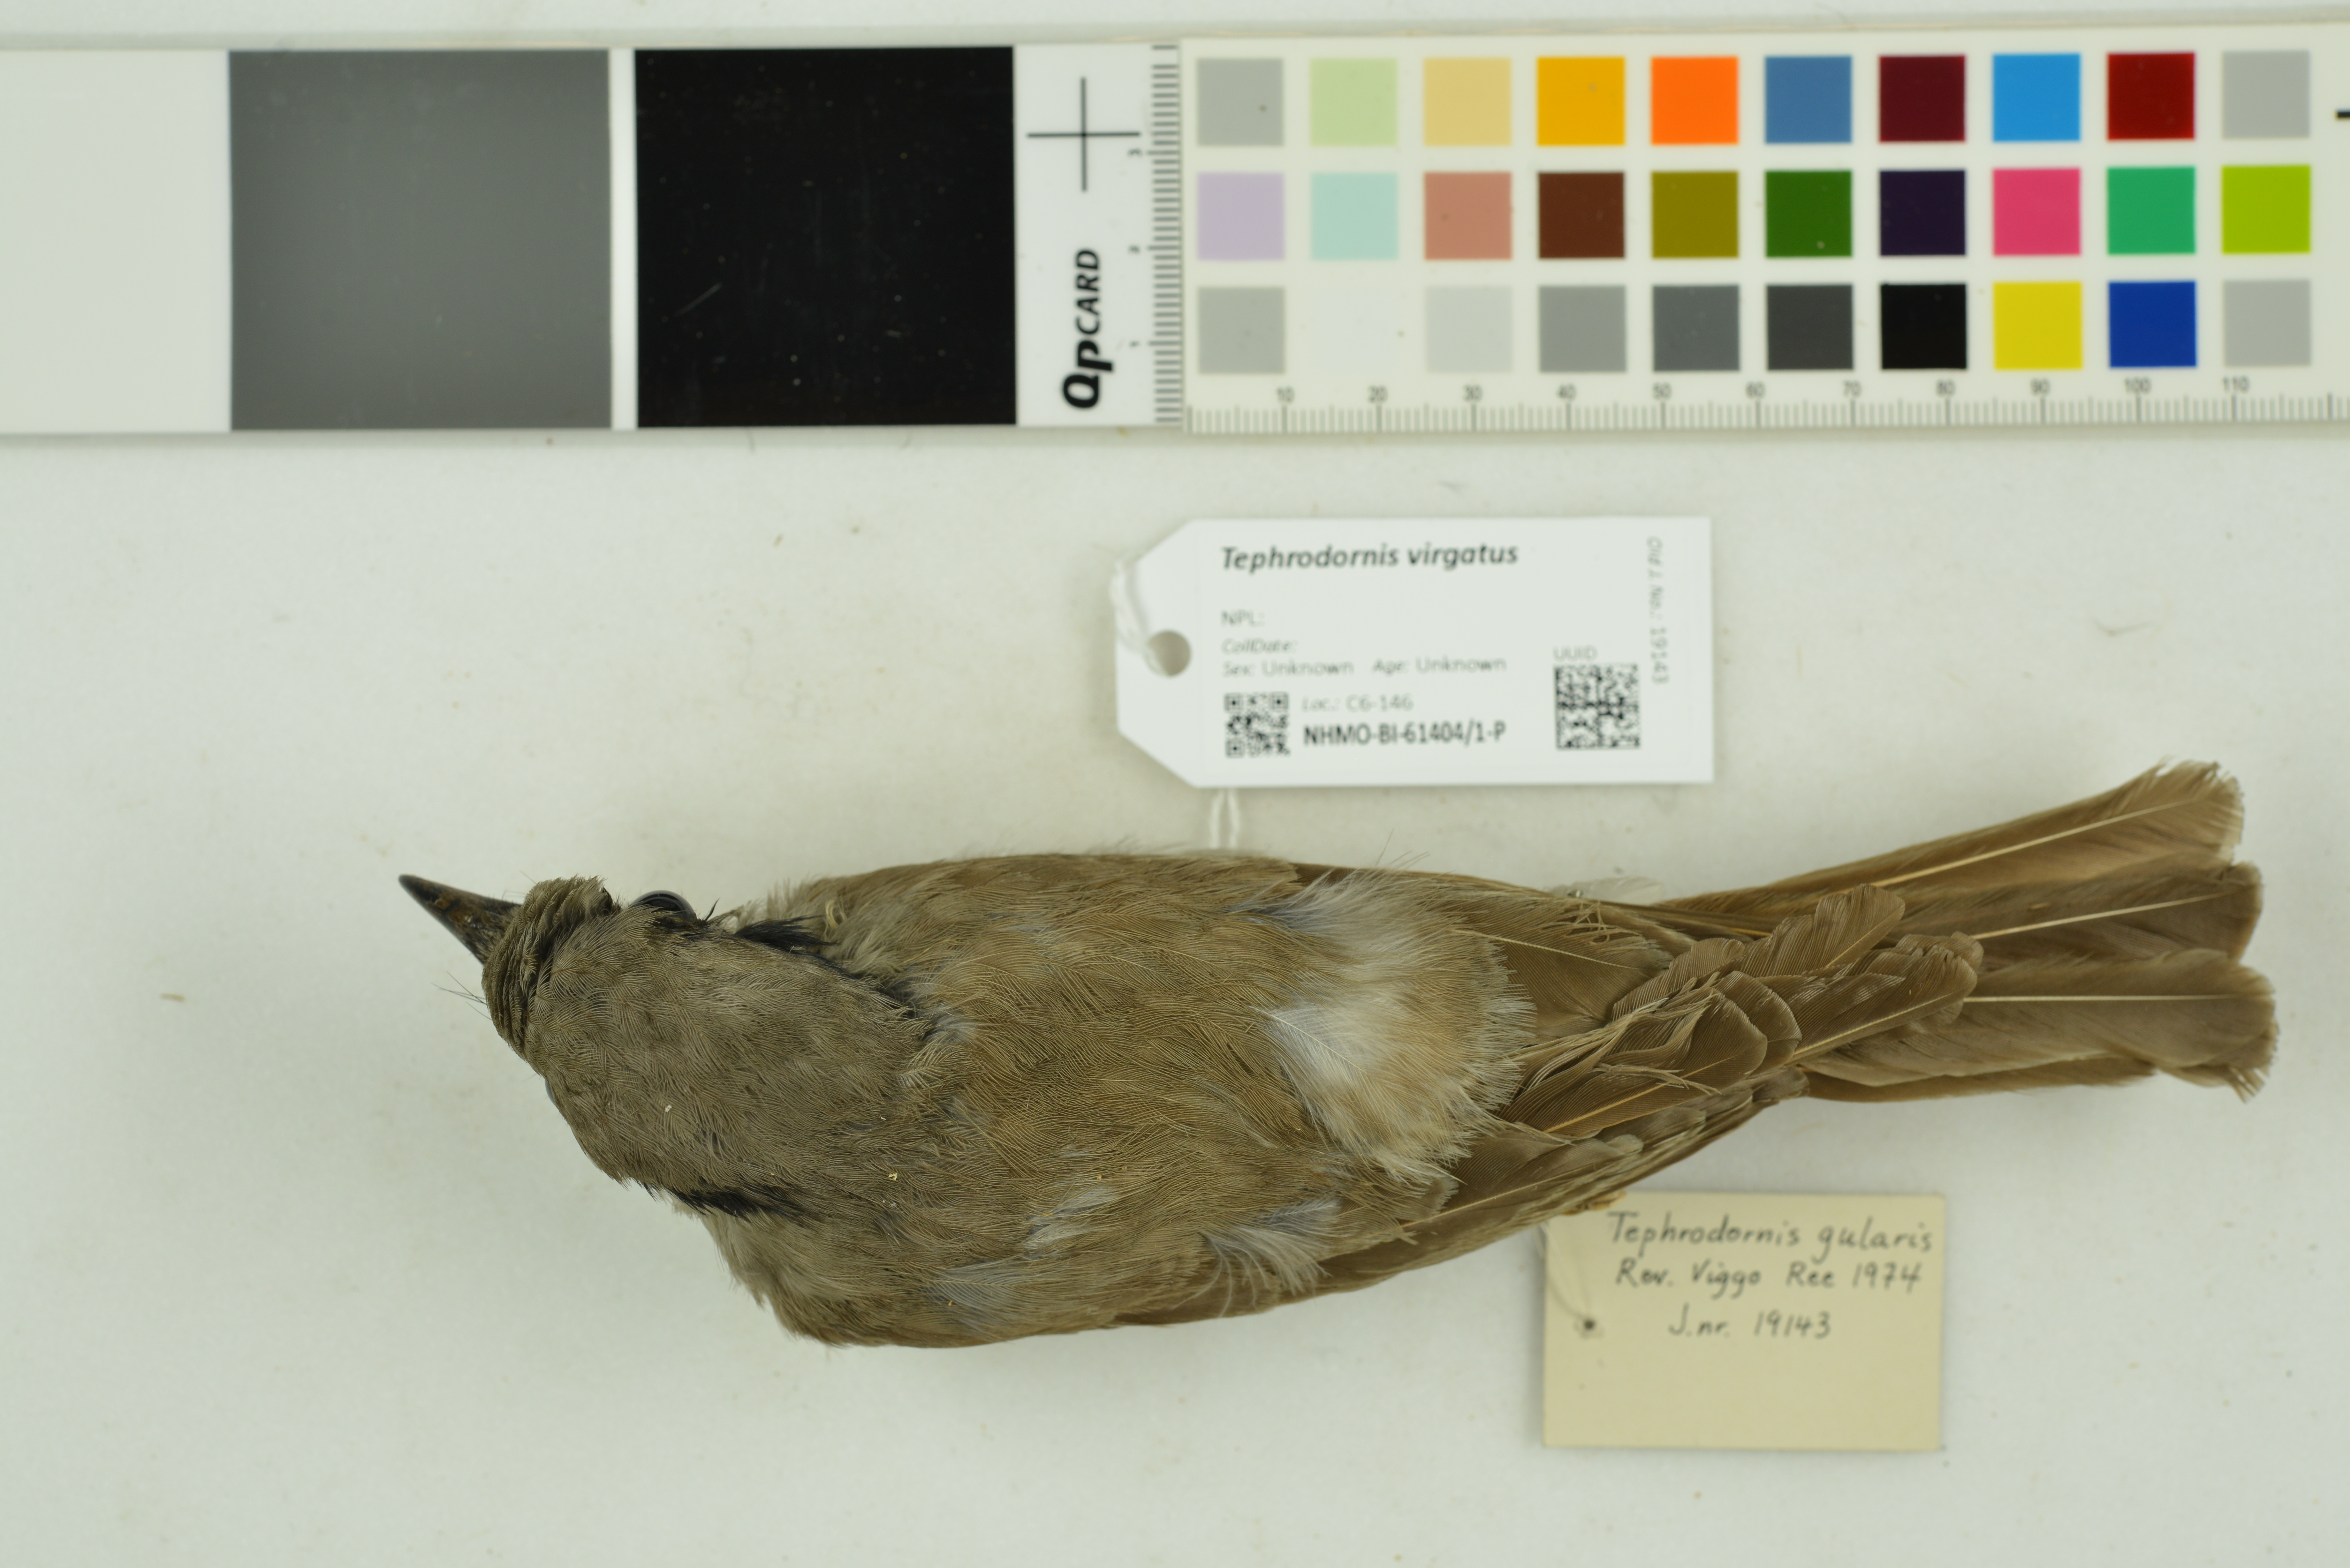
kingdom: Animalia
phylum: Chordata
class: Aves
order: Passeriformes
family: Tephrodornithidae
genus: Tephrodornis
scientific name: Tephrodornis virgatus
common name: Large woodshrike
